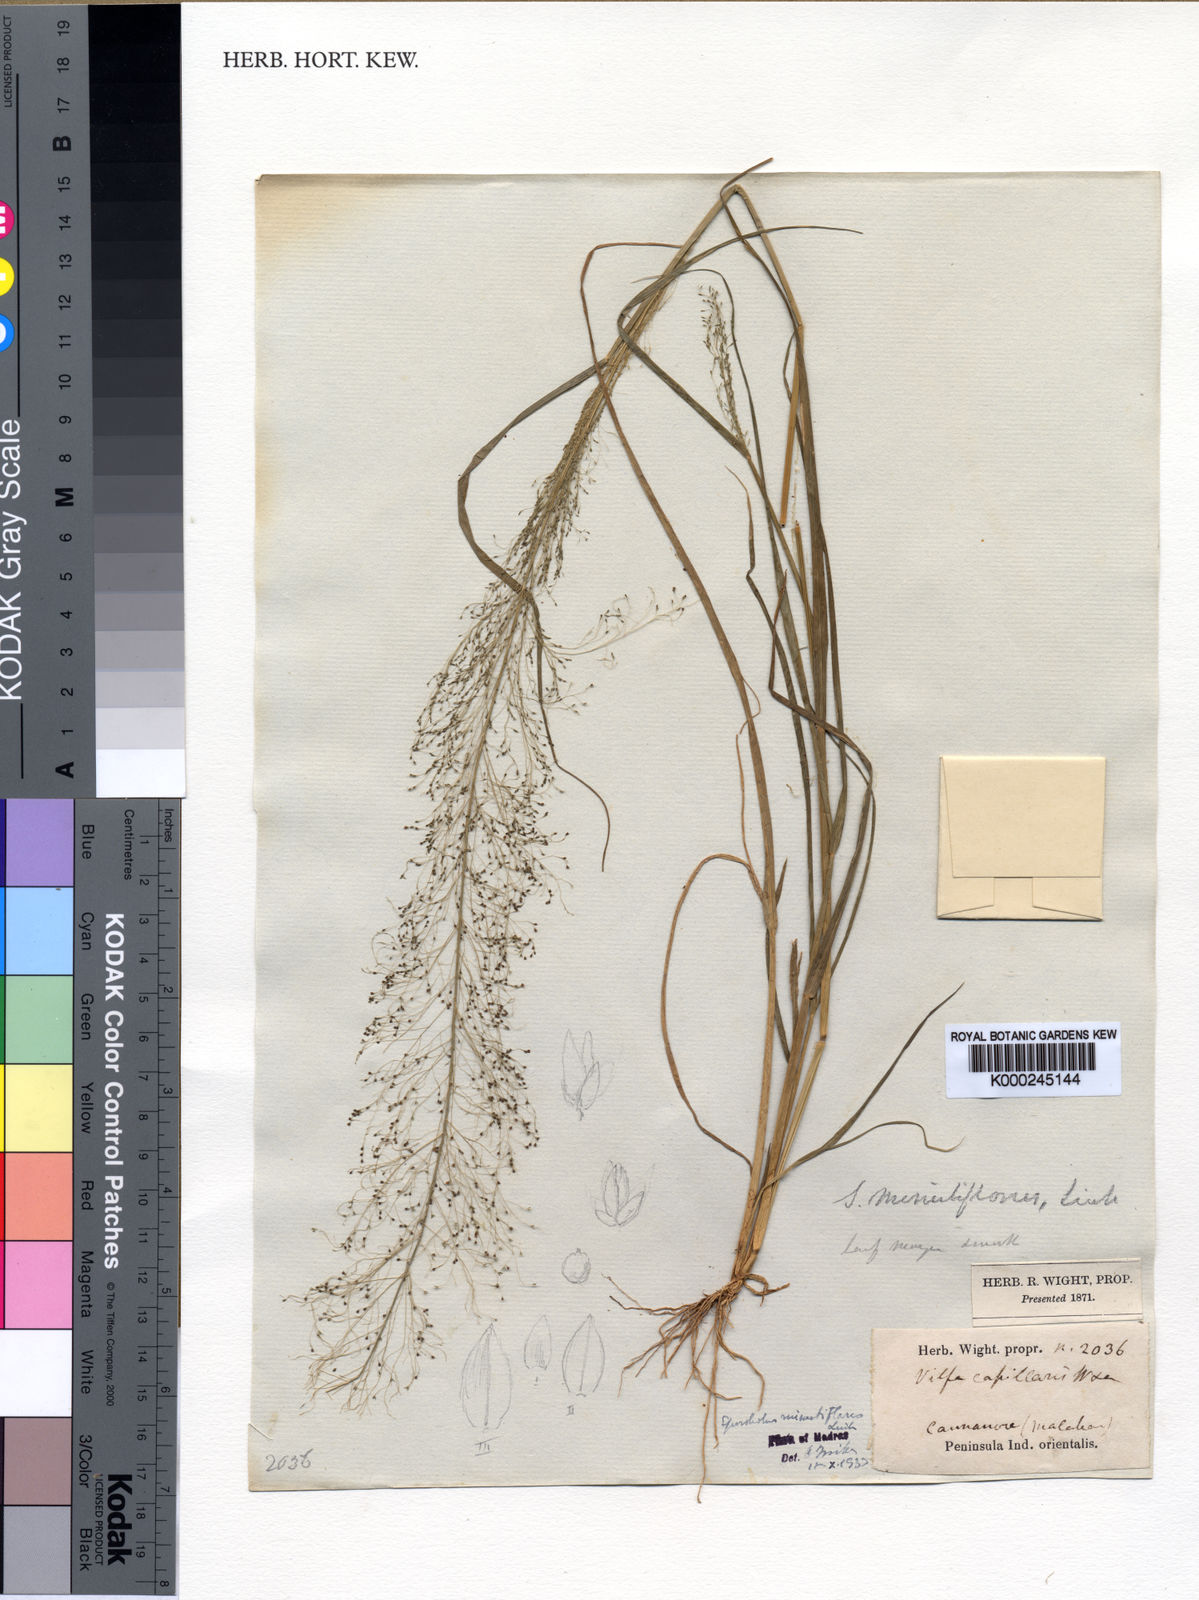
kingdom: Plantae
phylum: Tracheophyta
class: Liliopsida
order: Poales
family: Poaceae
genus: Sporobolus
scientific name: Sporobolus tenuissimus
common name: Tropical dropseed
